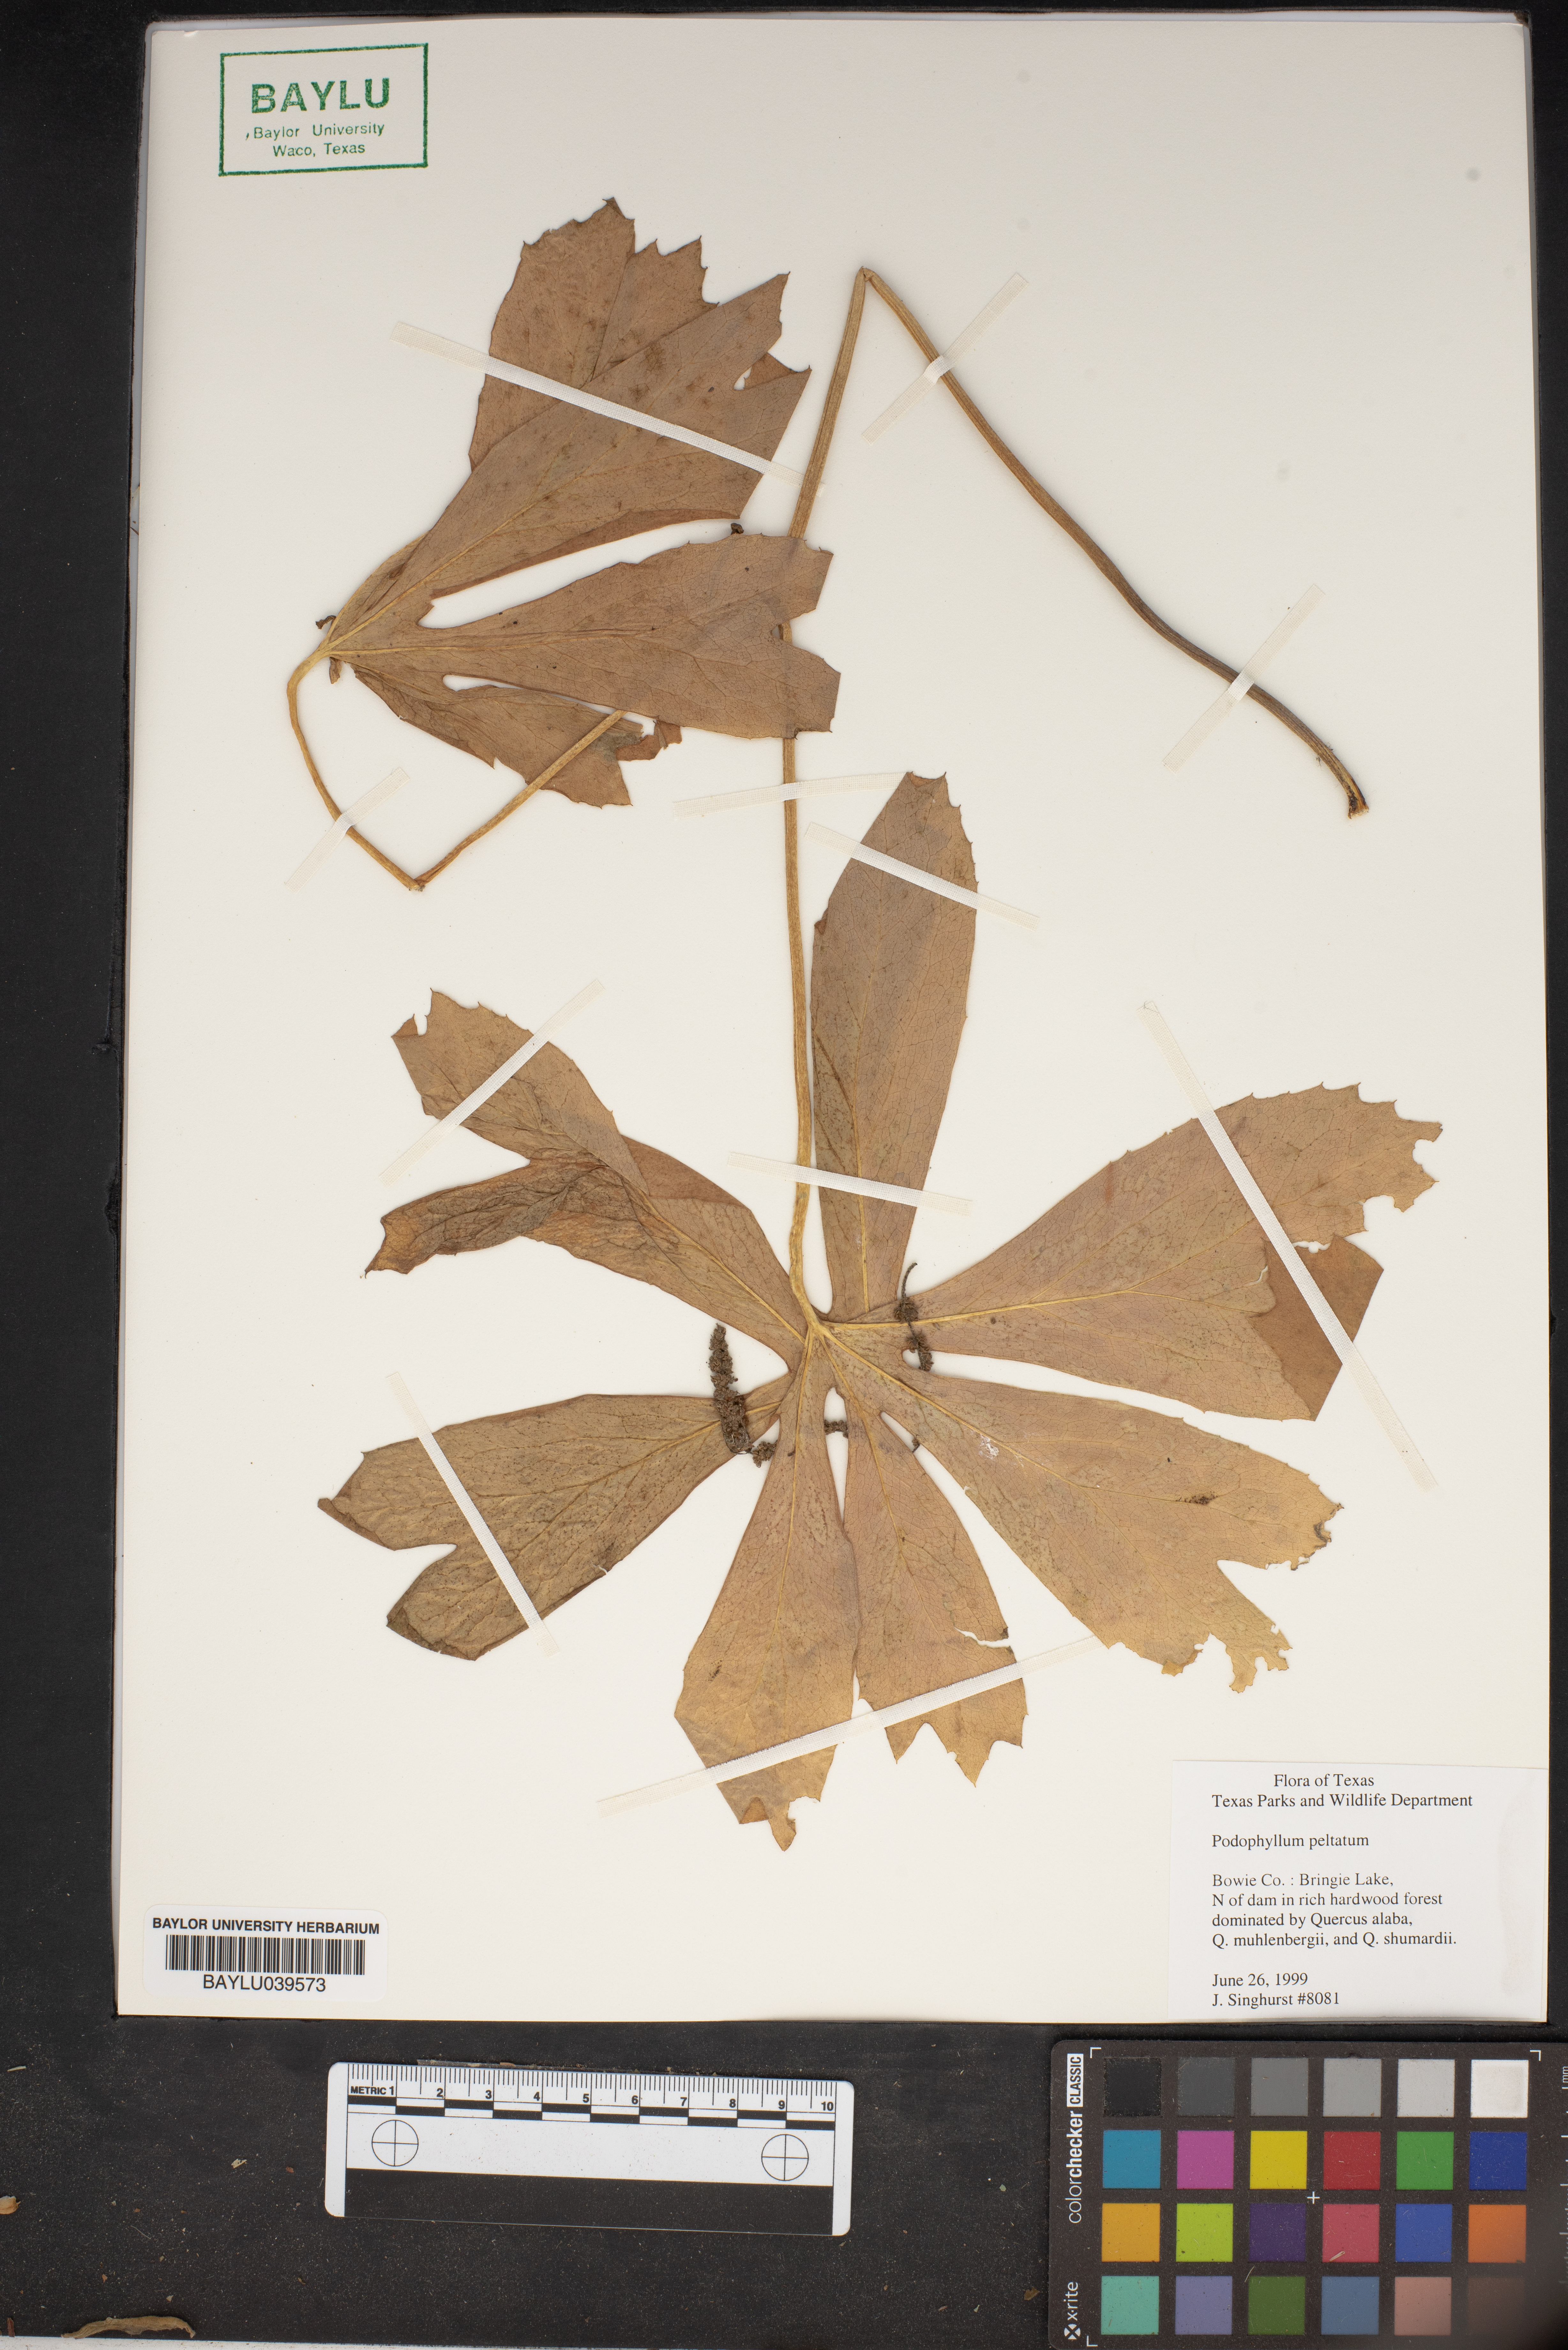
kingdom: Plantae
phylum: Tracheophyta
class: Magnoliopsida
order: Ranunculales
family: Berberidaceae
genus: Podophyllum
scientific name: Podophyllum peltatum
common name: Wild mandrake
